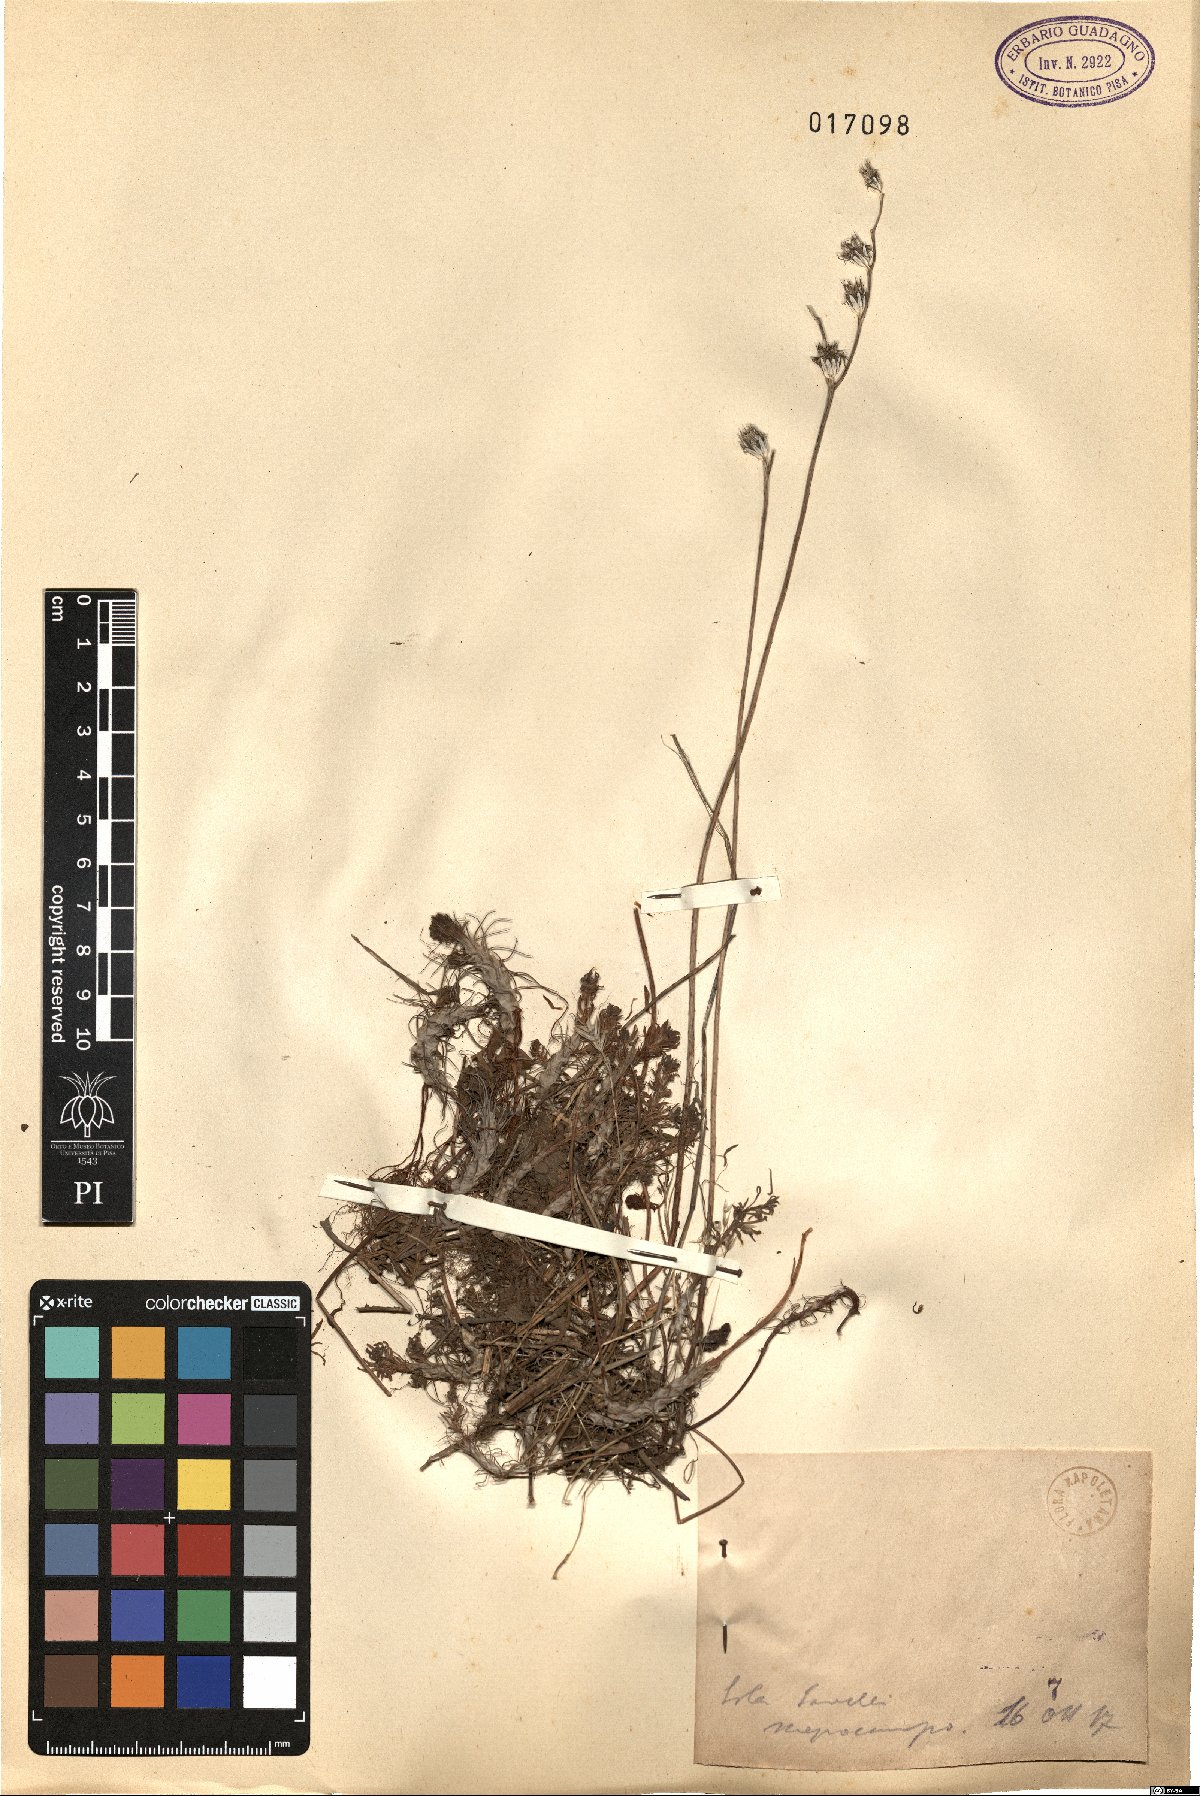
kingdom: Plantae
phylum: Tracheophyta
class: Magnoliopsida
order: Saxifragales
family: Crassulaceae
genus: Sedum
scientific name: Sedum
